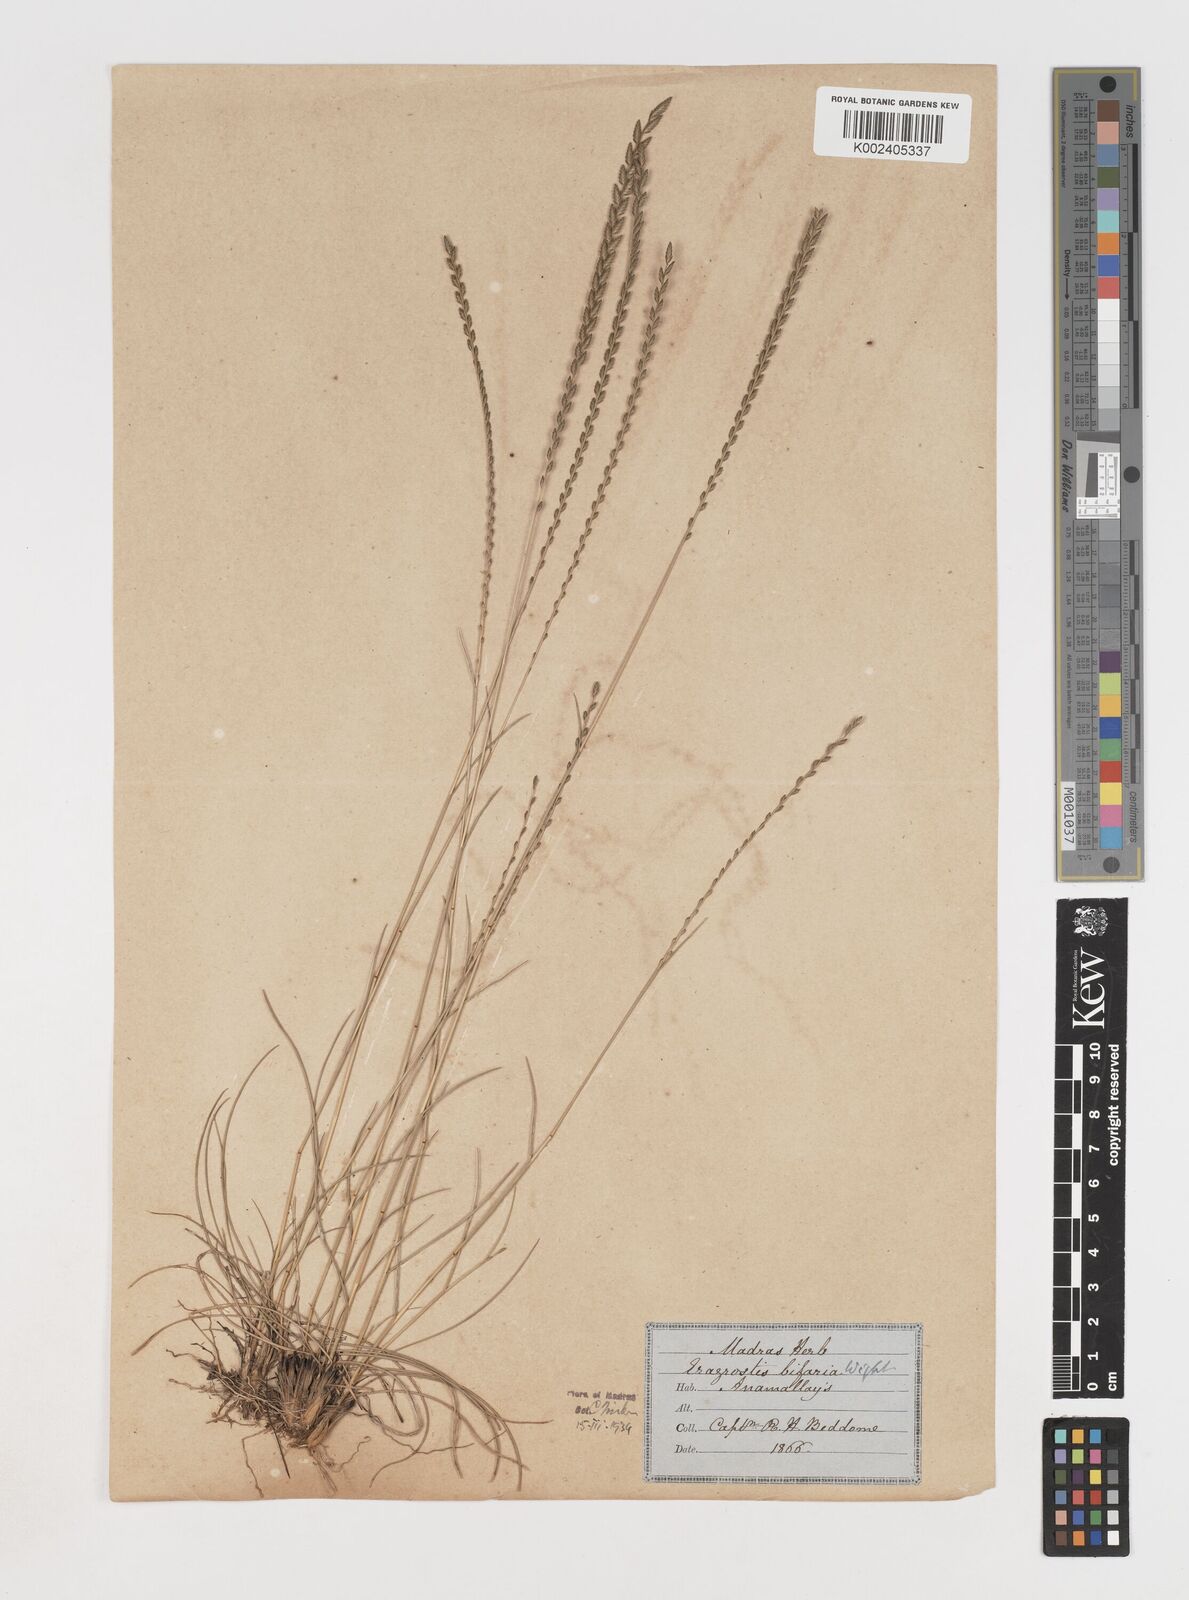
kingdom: Plantae
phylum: Tracheophyta
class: Liliopsida
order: Poales
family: Poaceae
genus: Eragrostiella
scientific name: Eragrostiella bifaria
